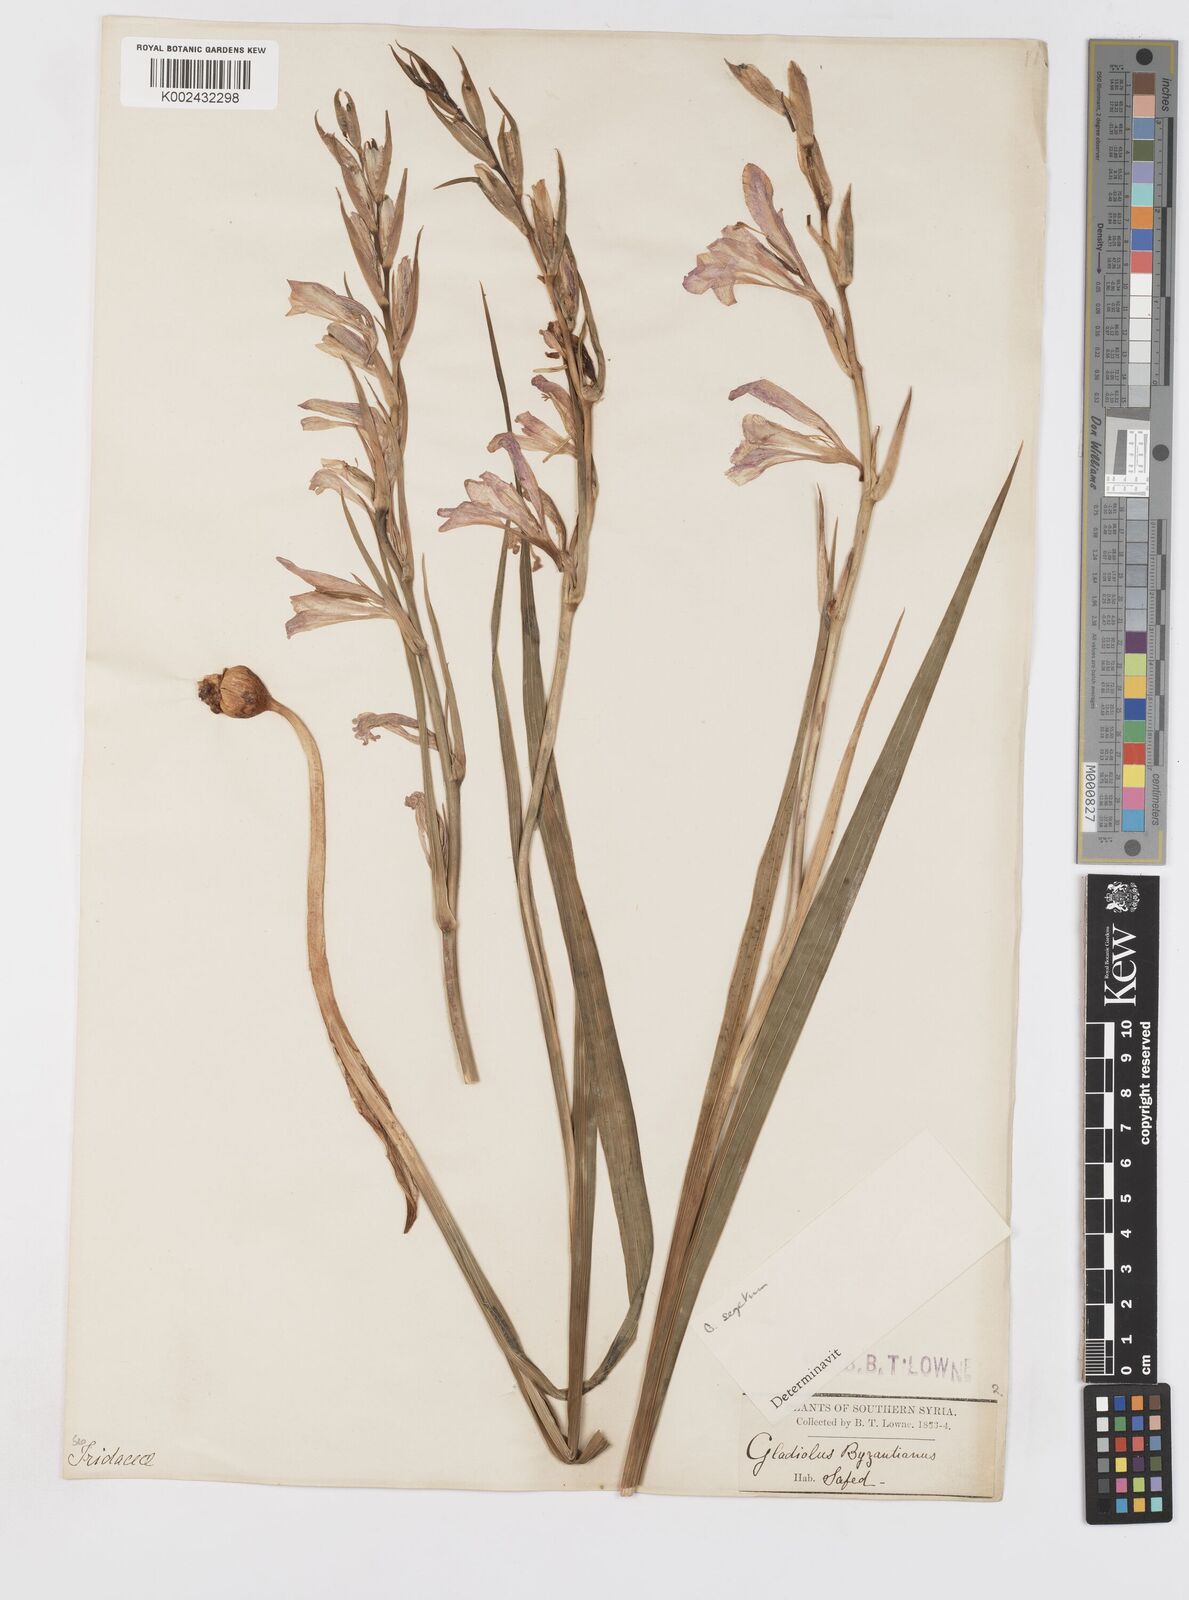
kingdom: Plantae
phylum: Tracheophyta
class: Liliopsida
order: Asparagales
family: Iridaceae
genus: Gladiolus
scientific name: Gladiolus italicus
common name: Field gladiolus
